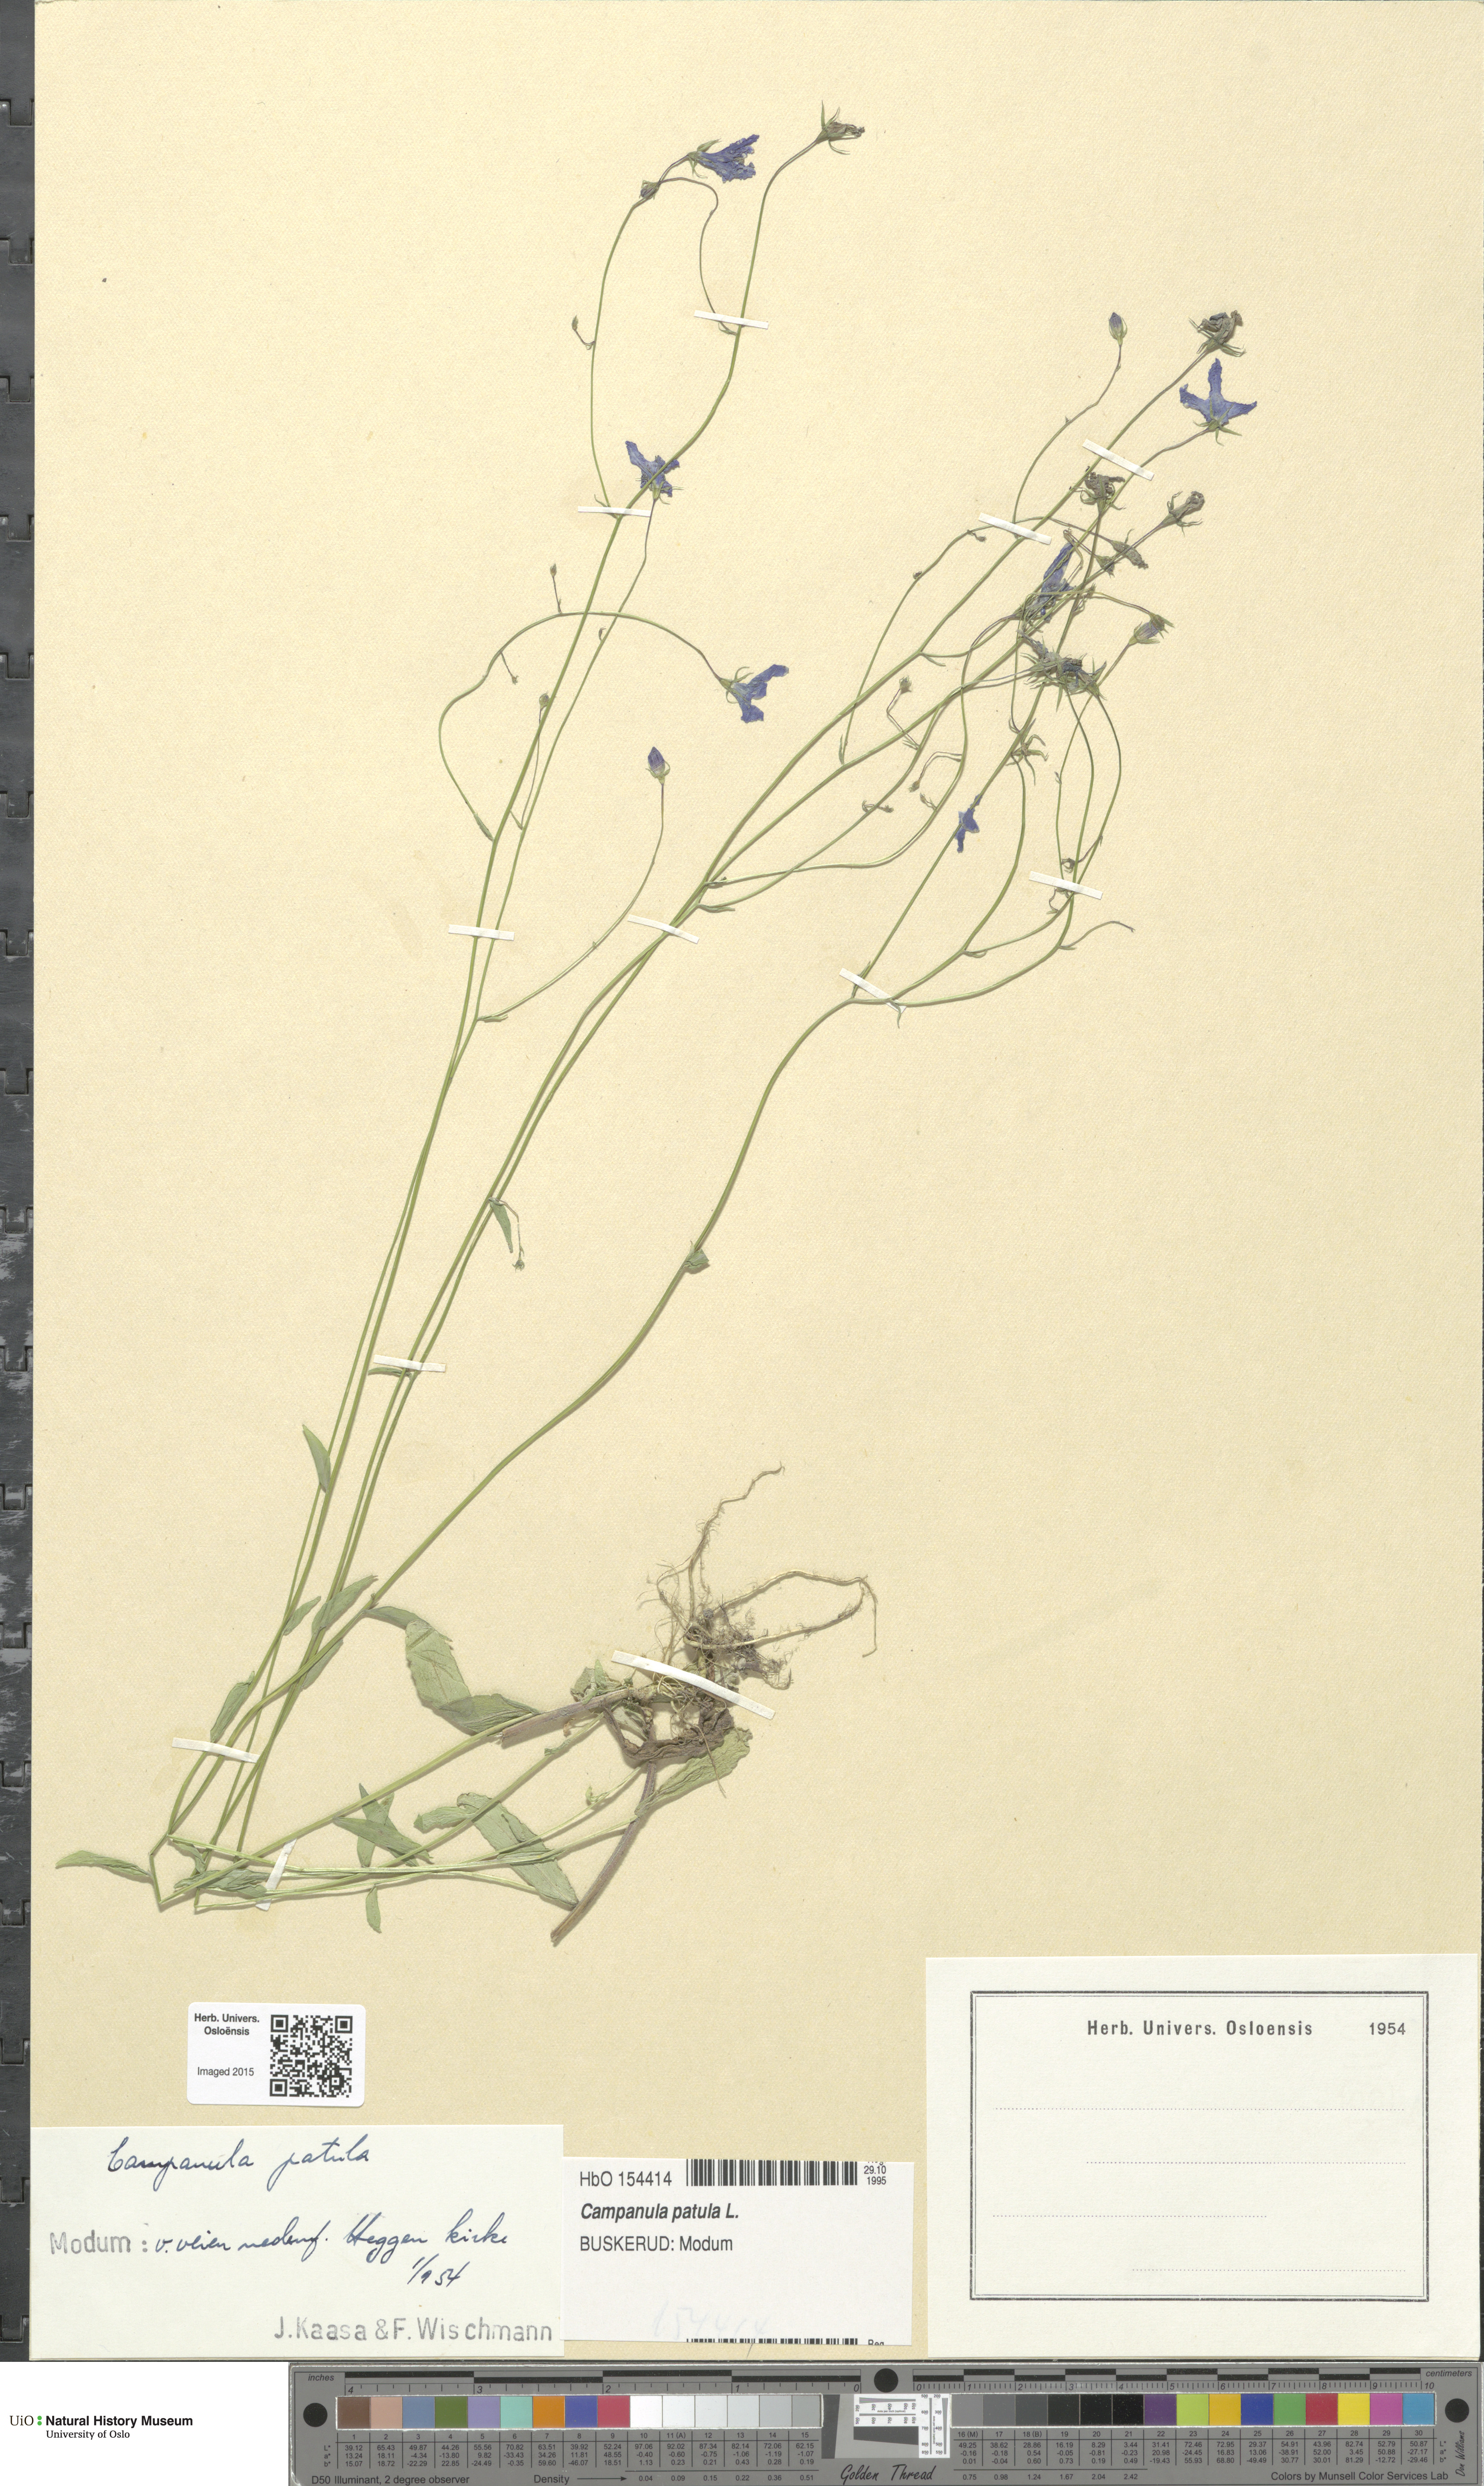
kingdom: Plantae
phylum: Tracheophyta
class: Magnoliopsida
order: Asterales
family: Campanulaceae
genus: Campanula
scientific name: Campanula patula
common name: Spreading bellflower
